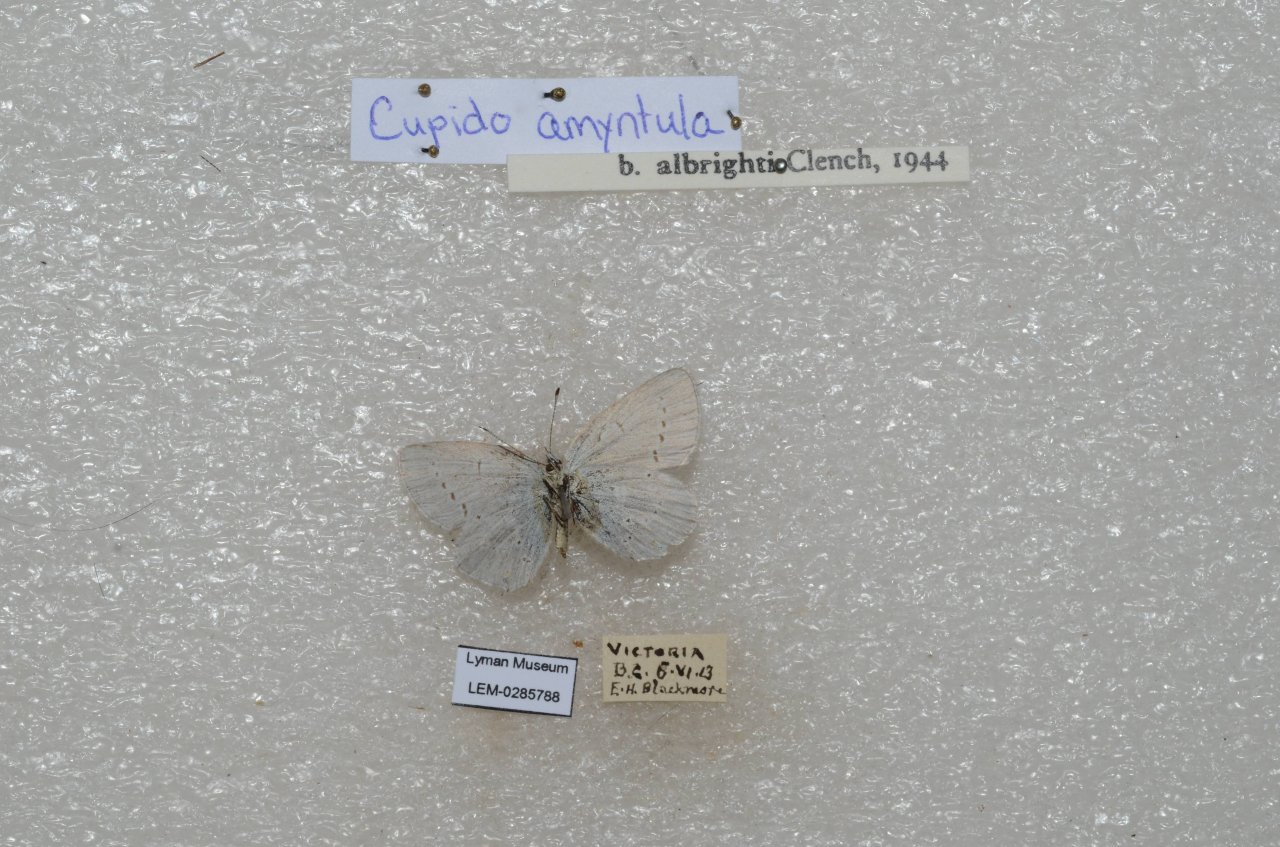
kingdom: Animalia
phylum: Arthropoda
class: Insecta
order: Lepidoptera
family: Lycaenidae
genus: Elkalyce
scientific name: Elkalyce amyntula
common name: Western Tailed-Blue
